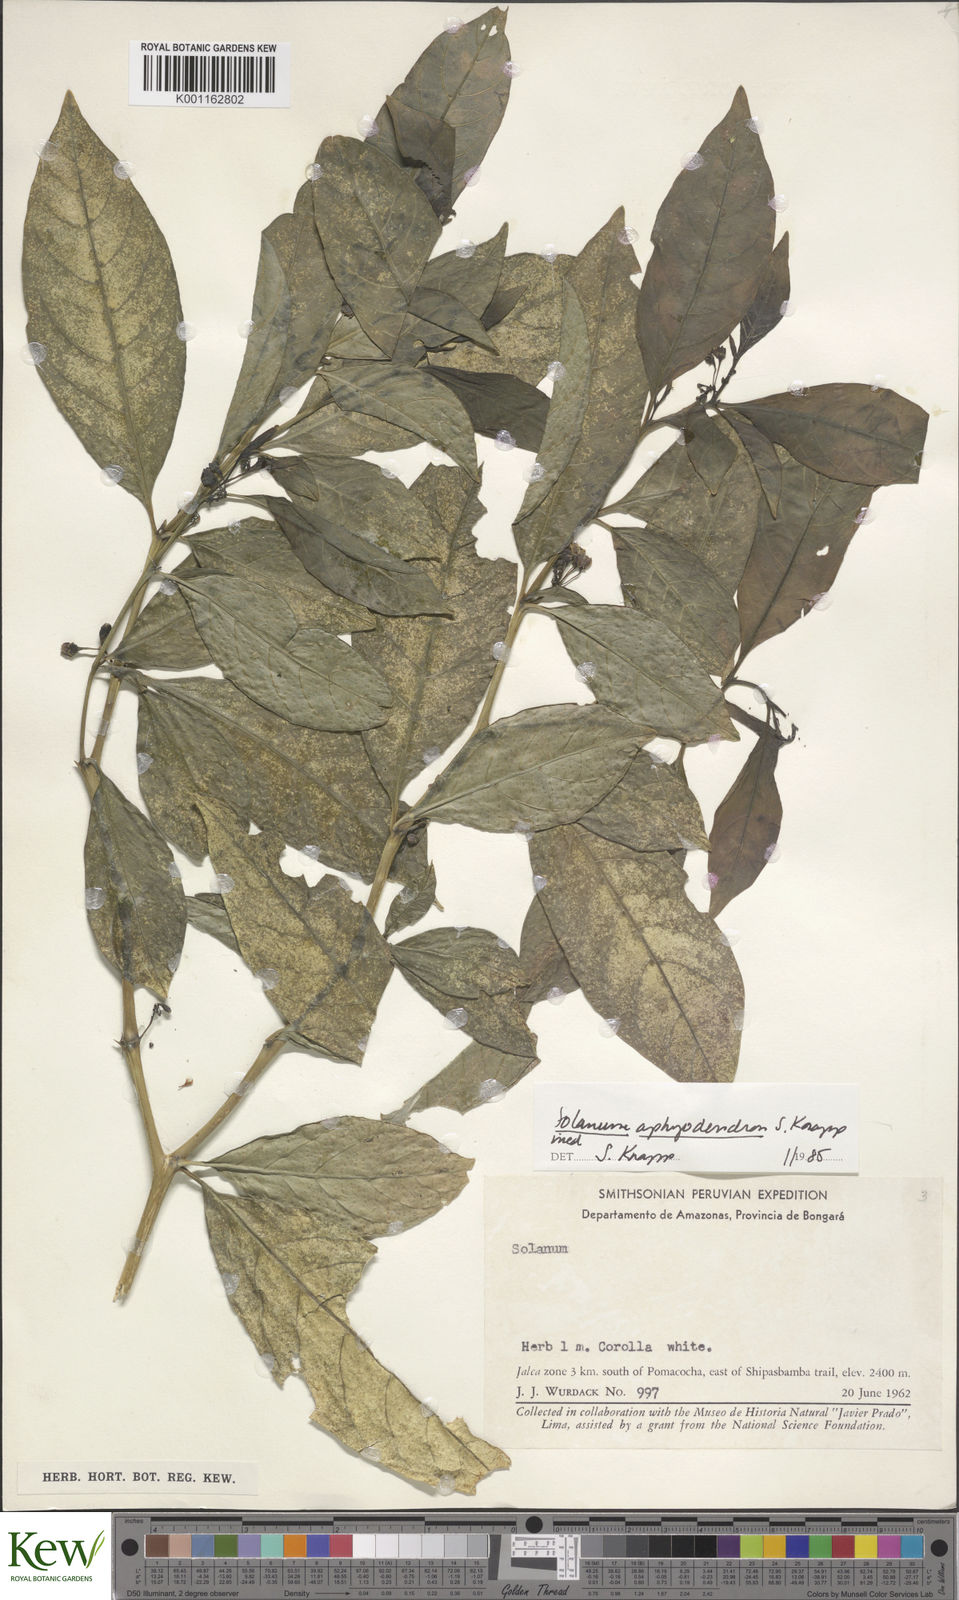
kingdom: Plantae
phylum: Tracheophyta
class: Magnoliopsida
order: Solanales
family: Solanaceae
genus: Solanum
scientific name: Solanum aphyodendron
